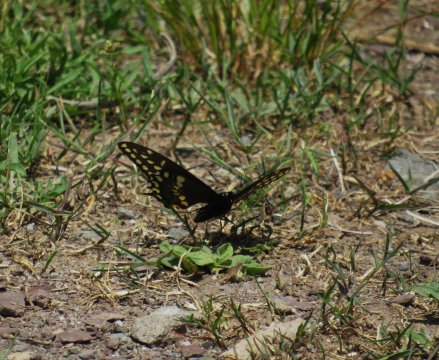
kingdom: Animalia
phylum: Arthropoda
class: Insecta
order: Lepidoptera
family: Papilionidae
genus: Papilio
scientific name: Papilio polyxenes
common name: Black Swallowtail
